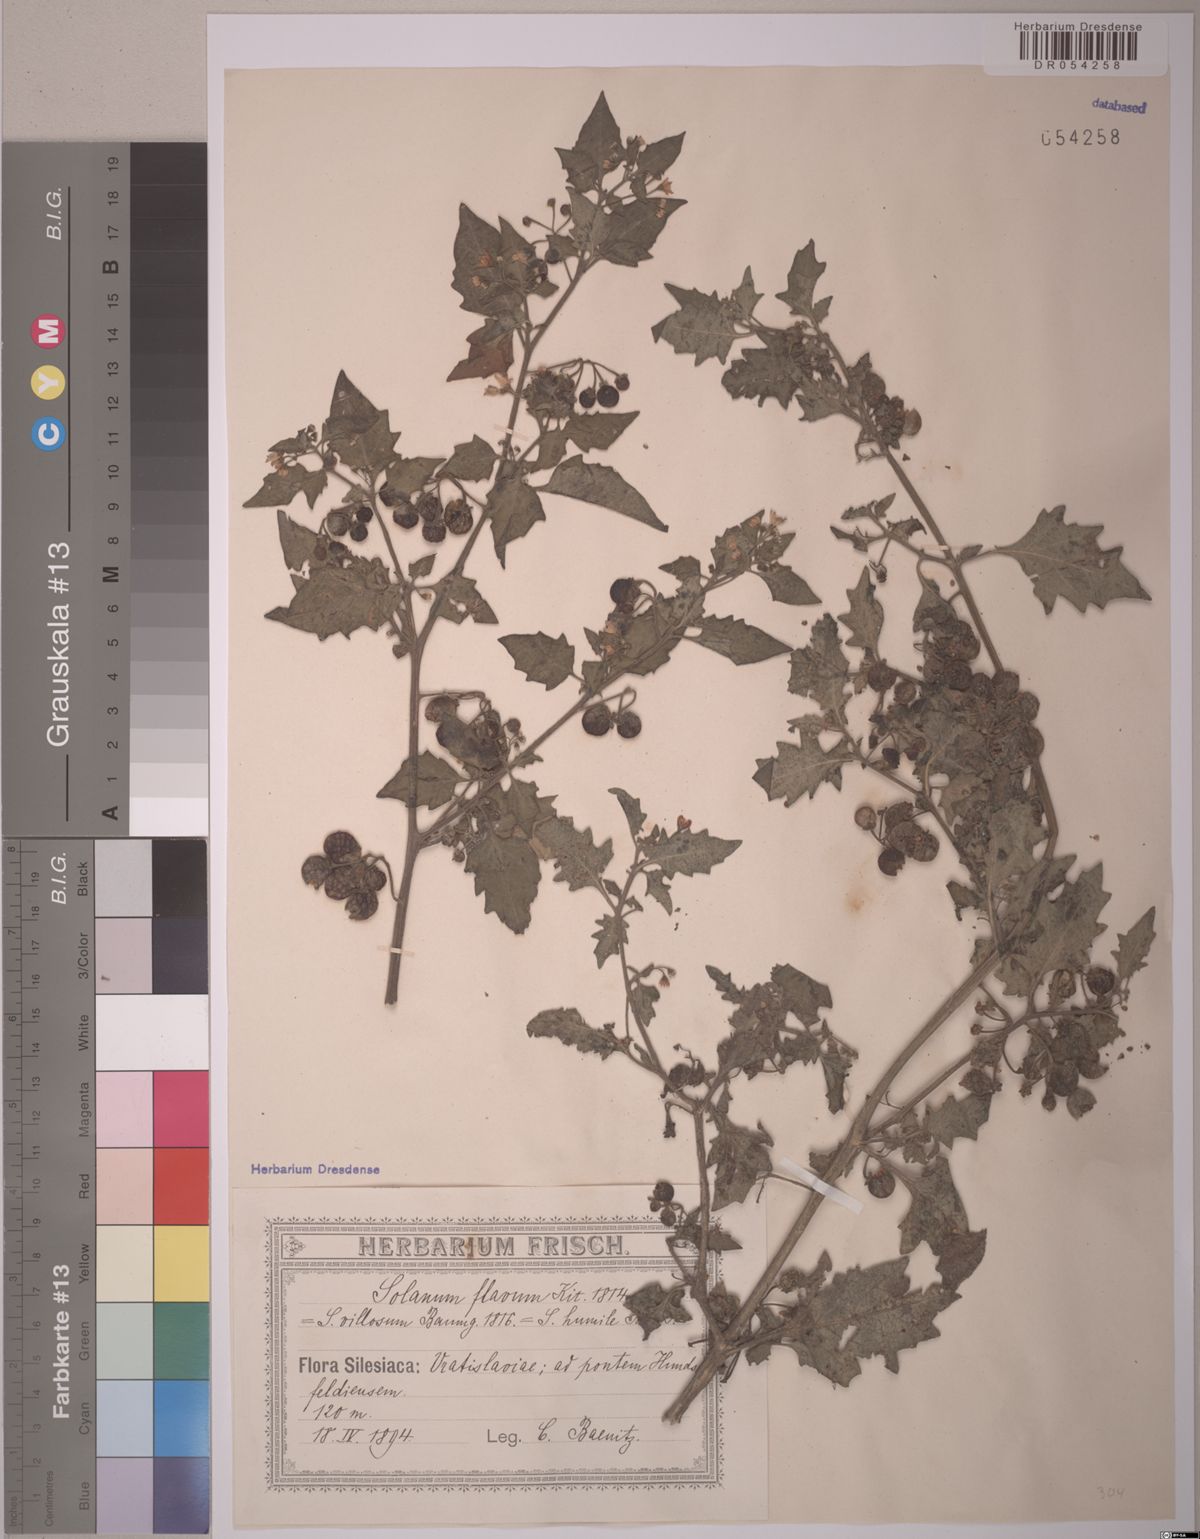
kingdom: Plantae
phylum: Tracheophyta
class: Magnoliopsida
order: Solanales
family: Solanaceae
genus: Solanum
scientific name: Solanum flavum
